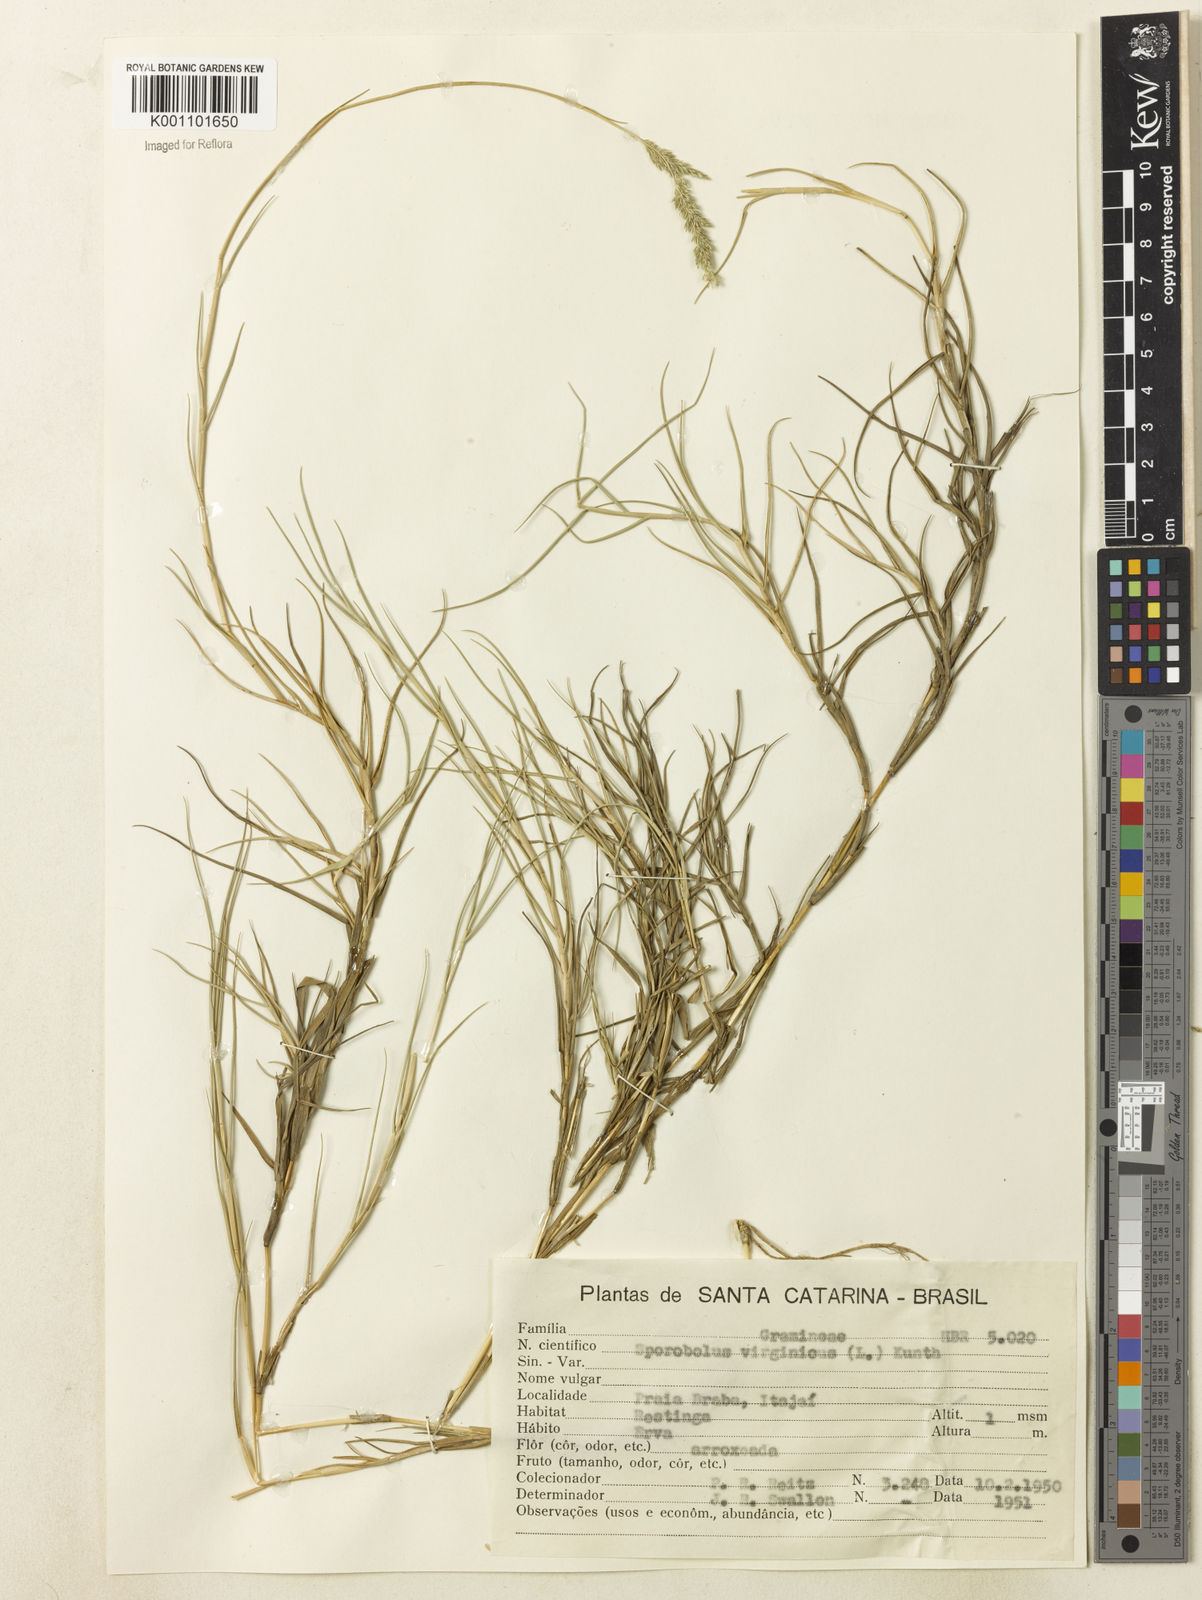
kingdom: Plantae
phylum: Tracheophyta
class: Liliopsida
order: Poales
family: Poaceae
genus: Sporobolus
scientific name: Sporobolus virginicus
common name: Beach dropseed
